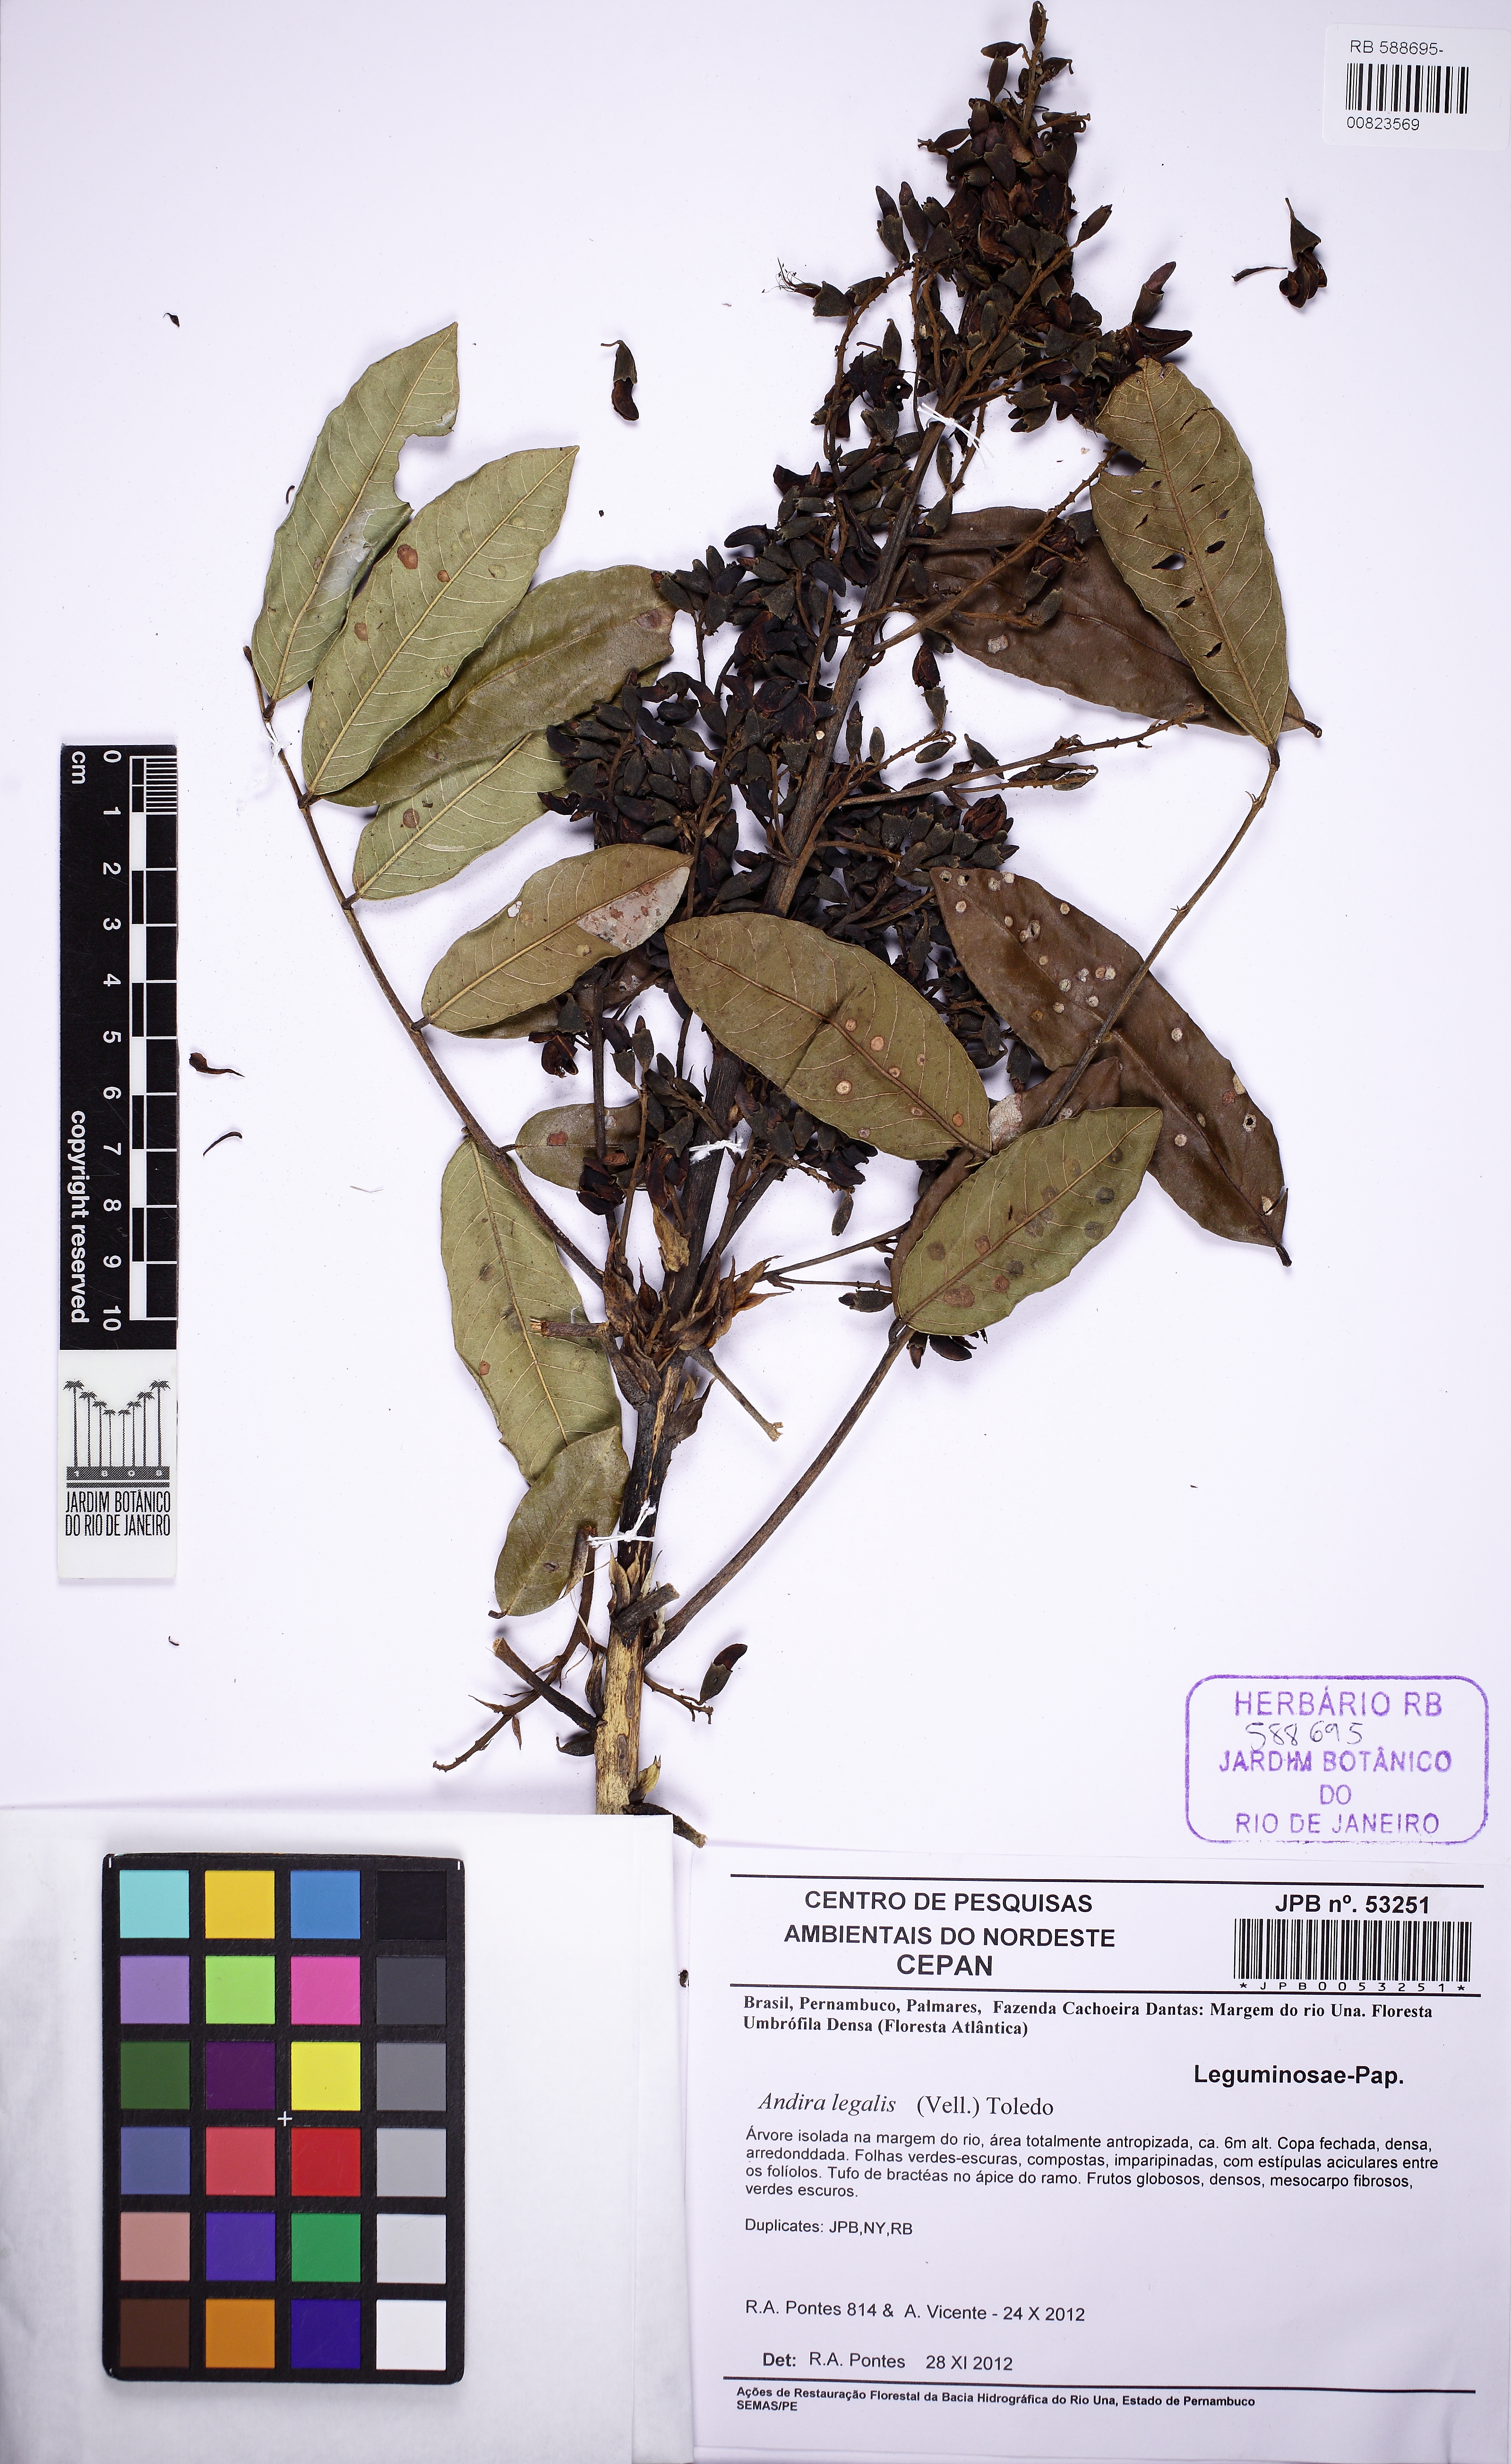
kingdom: Plantae
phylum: Tracheophyta
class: Magnoliopsida
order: Fabales
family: Fabaceae
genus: Andira
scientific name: Andira legalis
